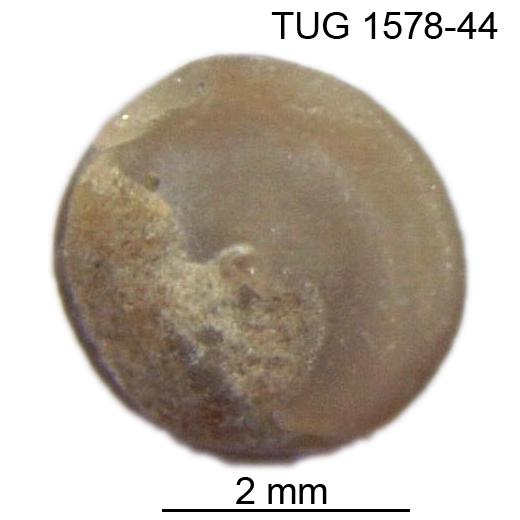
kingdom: Animalia
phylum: Mollusca
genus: Anticalyptraea
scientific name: Anticalyptraea westergaardi
